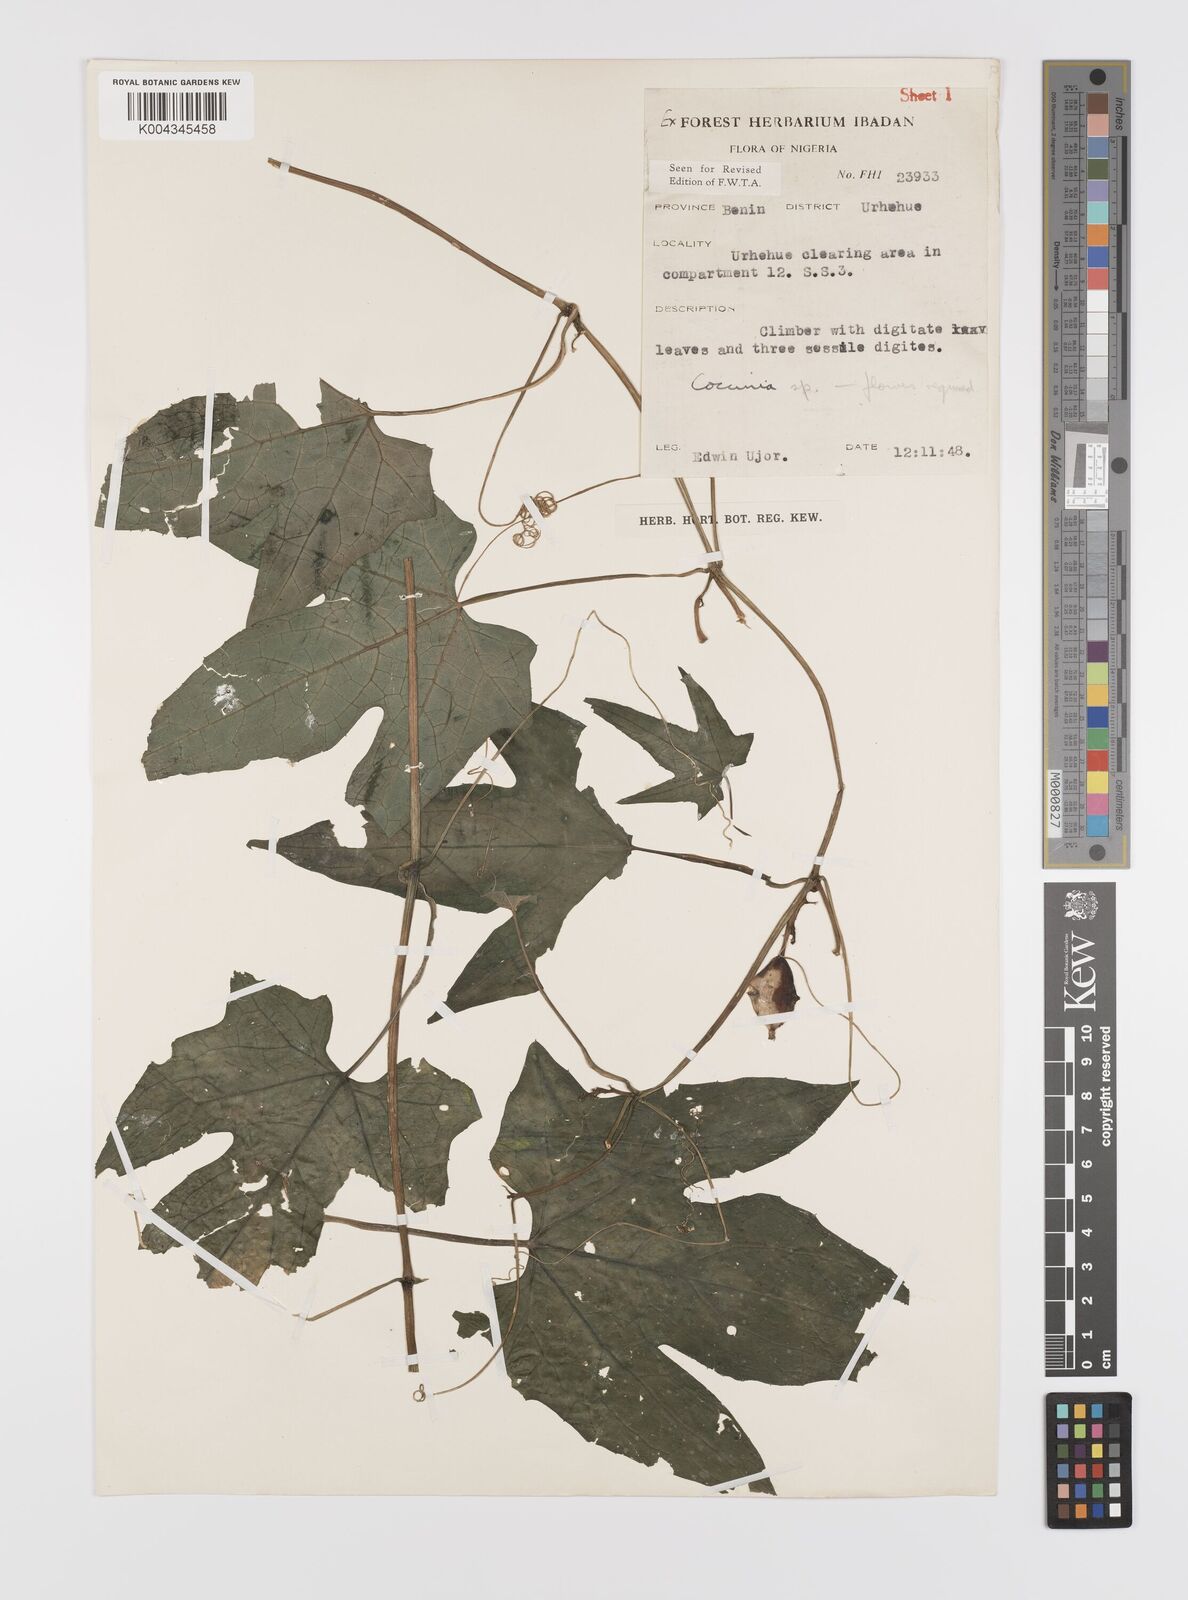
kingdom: Plantae
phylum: Tracheophyta
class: Magnoliopsida
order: Cucurbitales
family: Cucurbitaceae
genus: Coccinia
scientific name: Coccinia keayana
